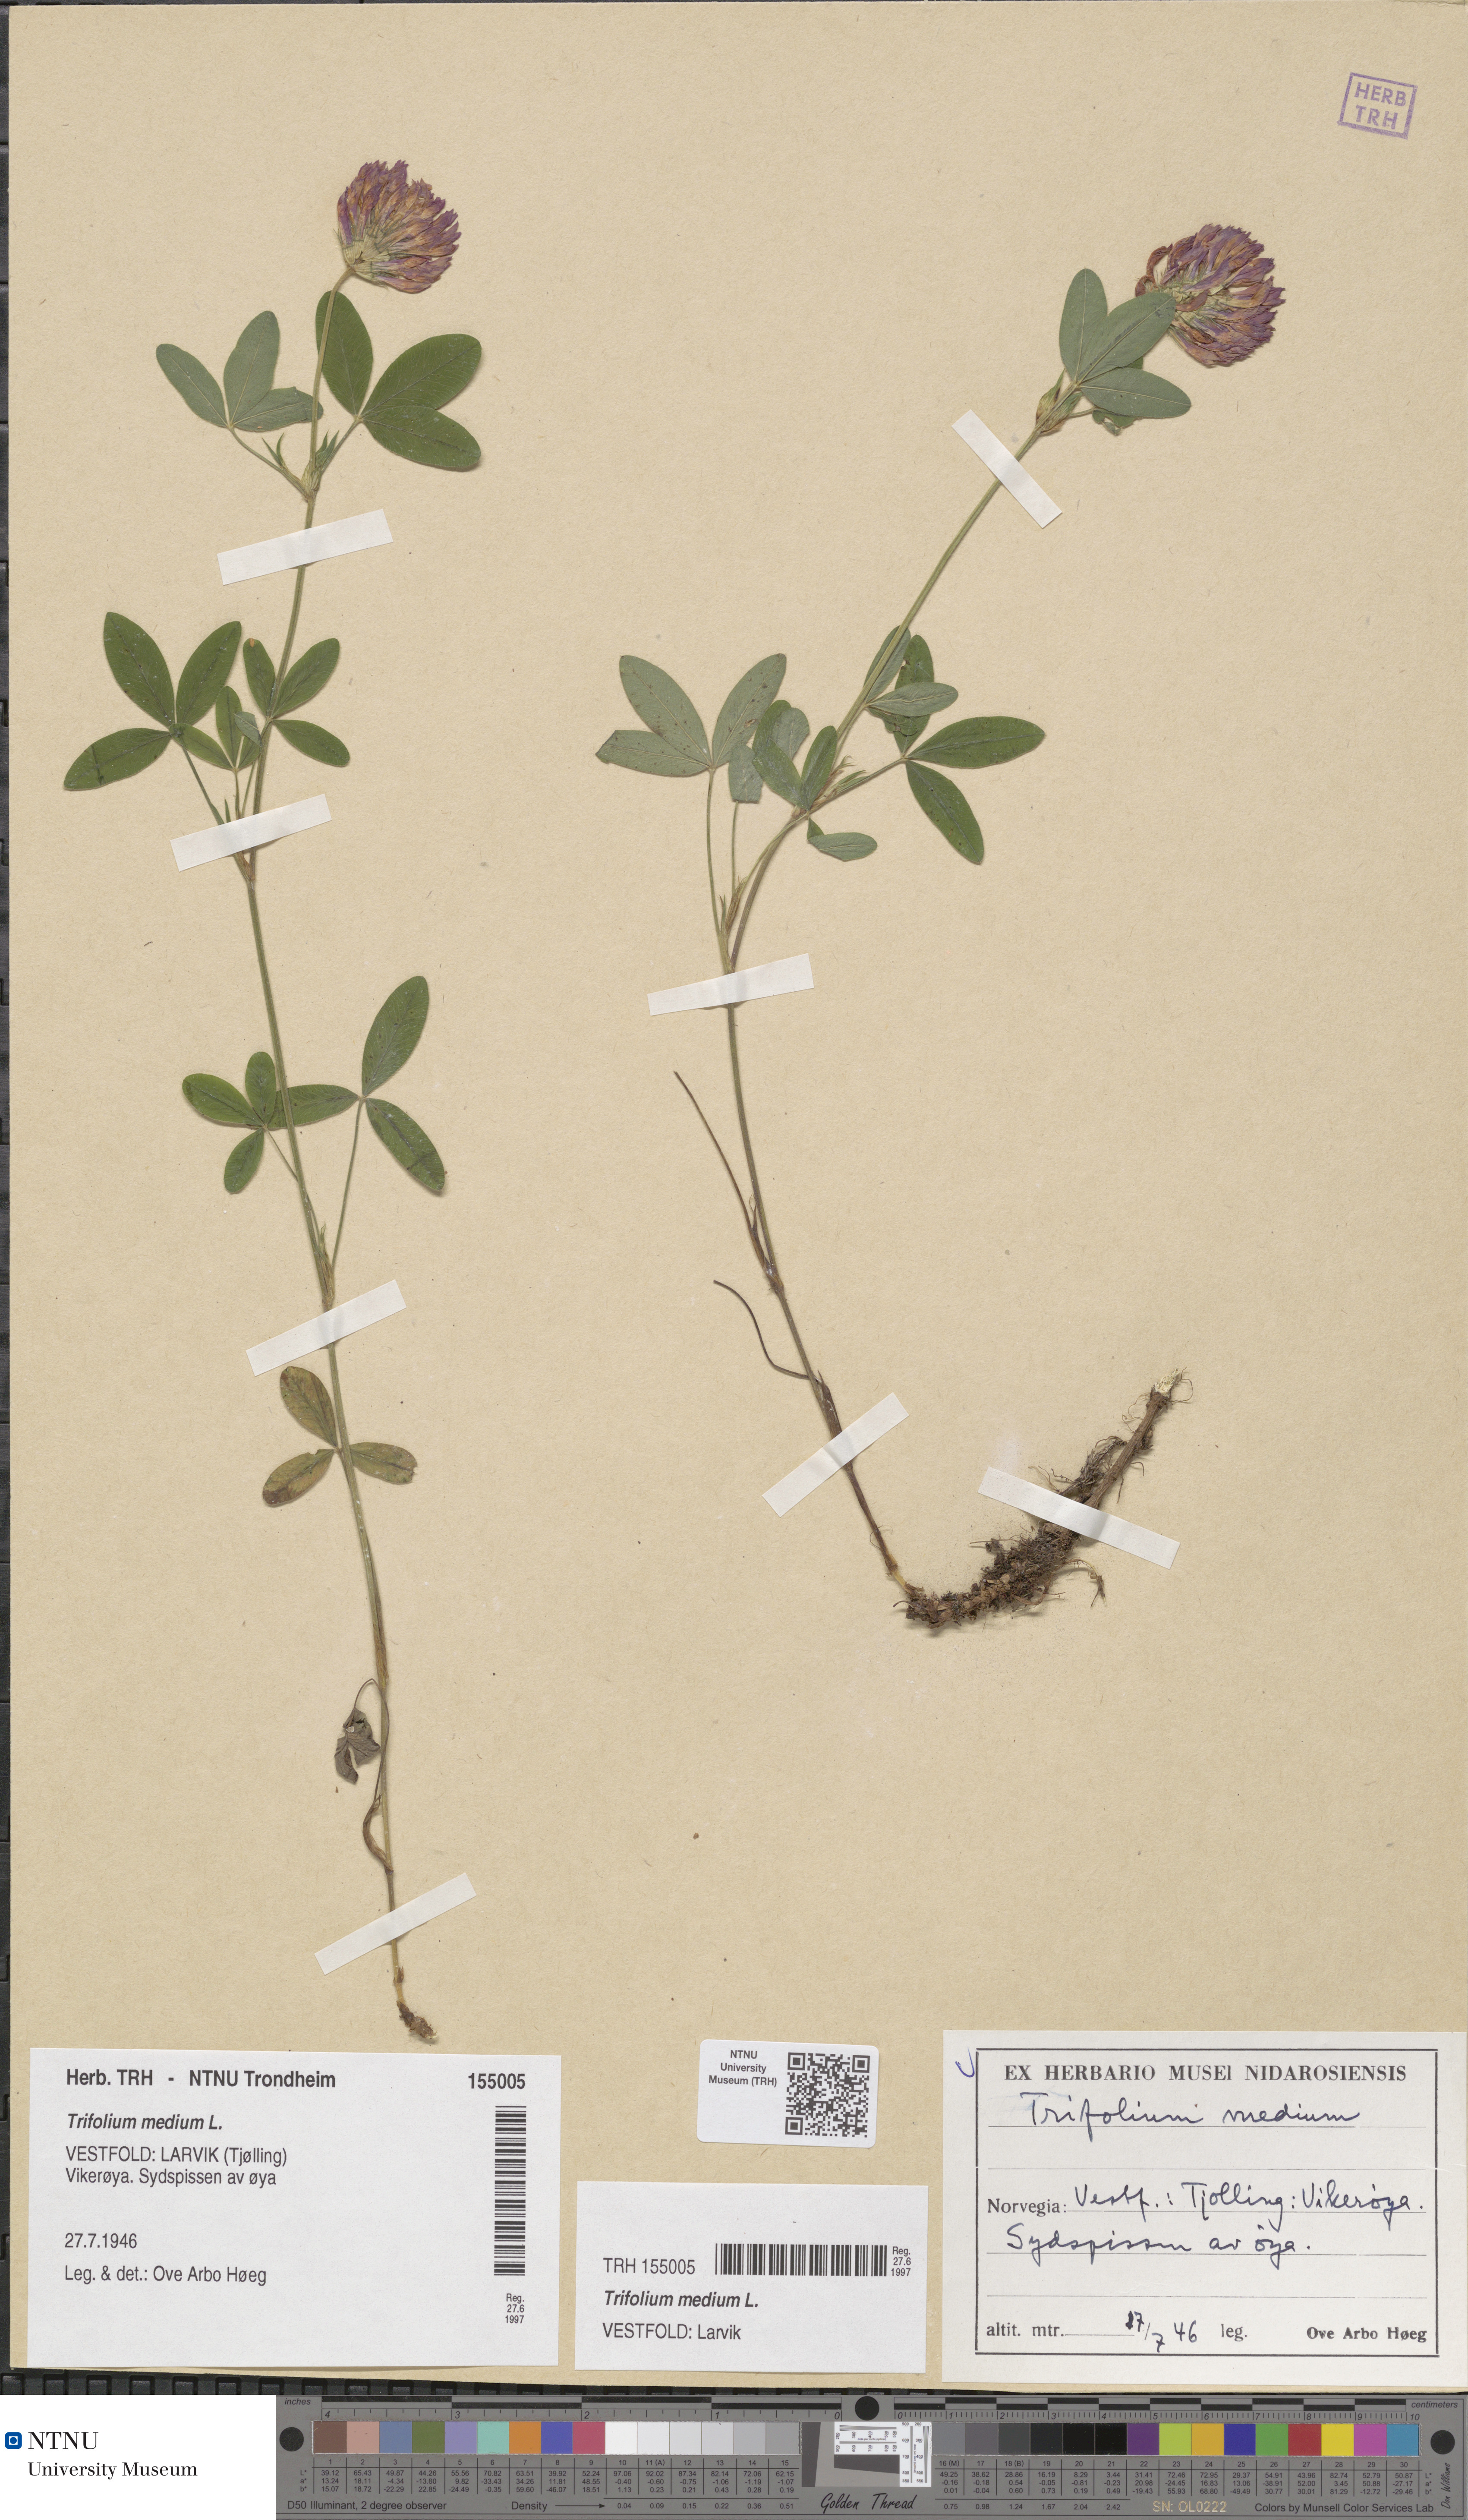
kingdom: Plantae
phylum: Tracheophyta
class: Magnoliopsida
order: Fabales
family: Fabaceae
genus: Trifolium
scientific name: Trifolium medium
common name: Zigzag clover
